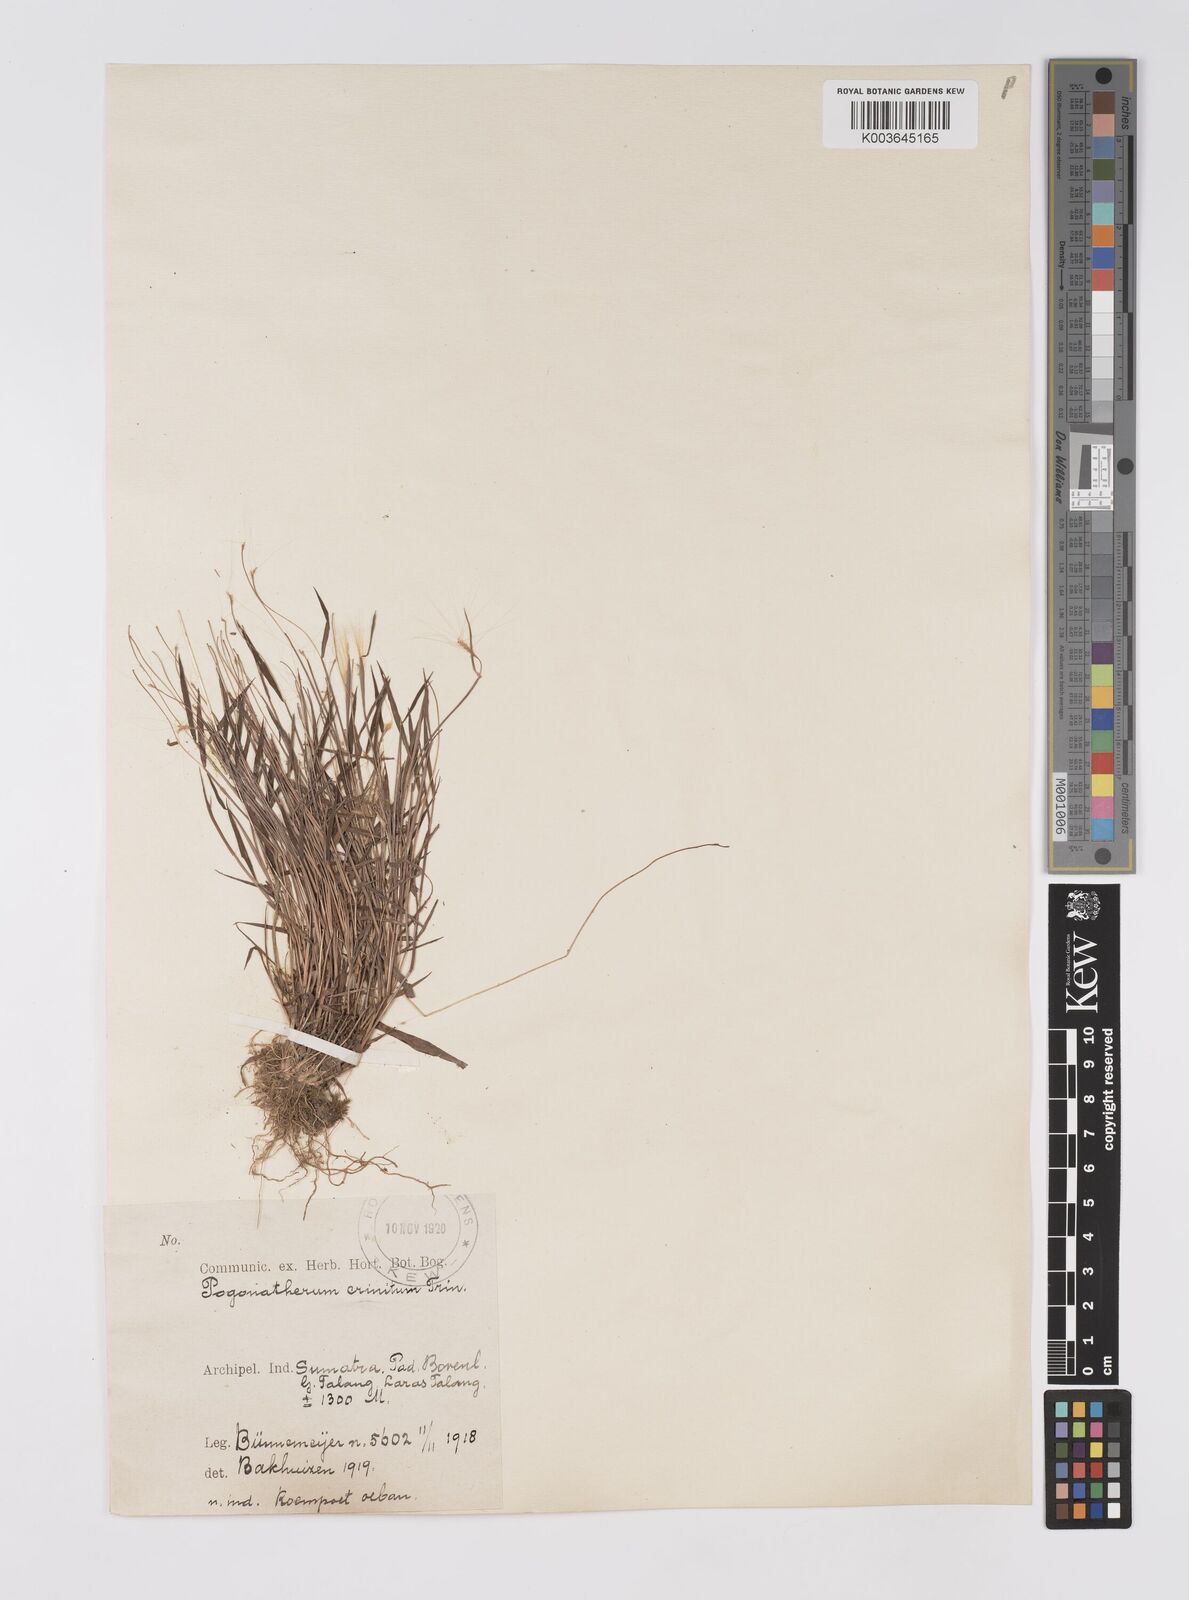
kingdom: Plantae
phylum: Tracheophyta
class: Liliopsida
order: Poales
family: Poaceae
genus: Pogonatherum
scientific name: Pogonatherum crinitum
